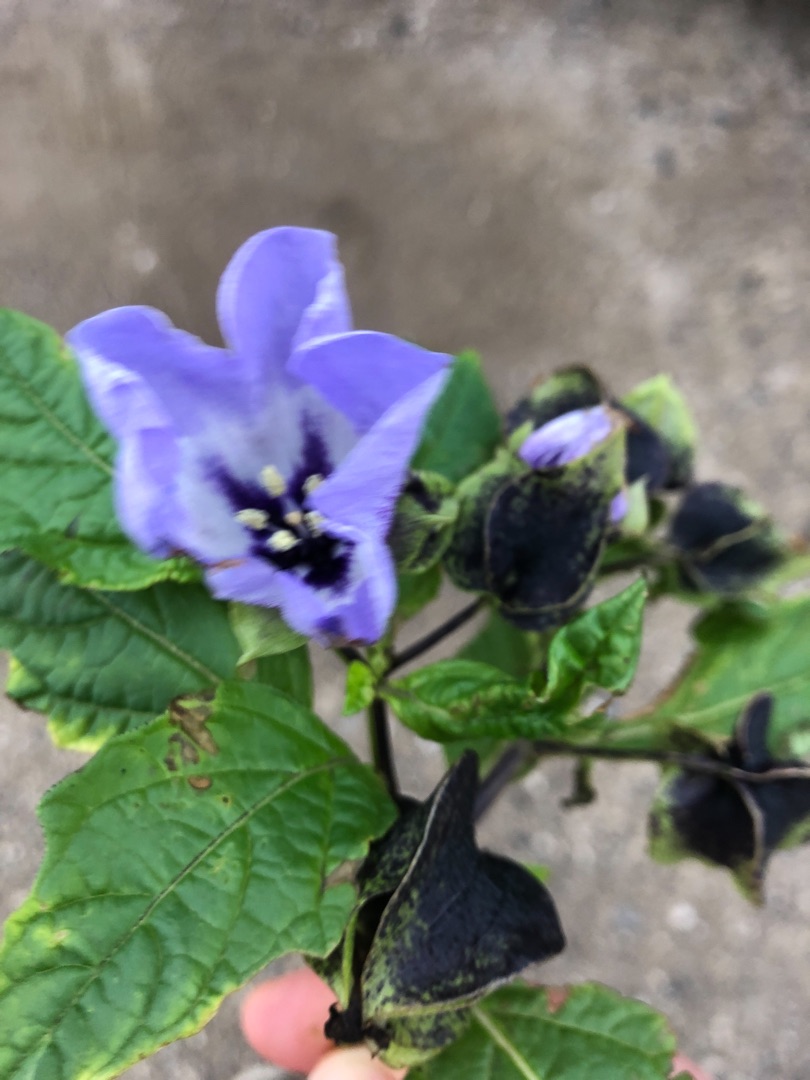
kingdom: Plantae
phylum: Tracheophyta
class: Magnoliopsida
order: Solanales
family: Solanaceae
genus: Nicandra
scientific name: Nicandra physalodes
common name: Kantbæger
